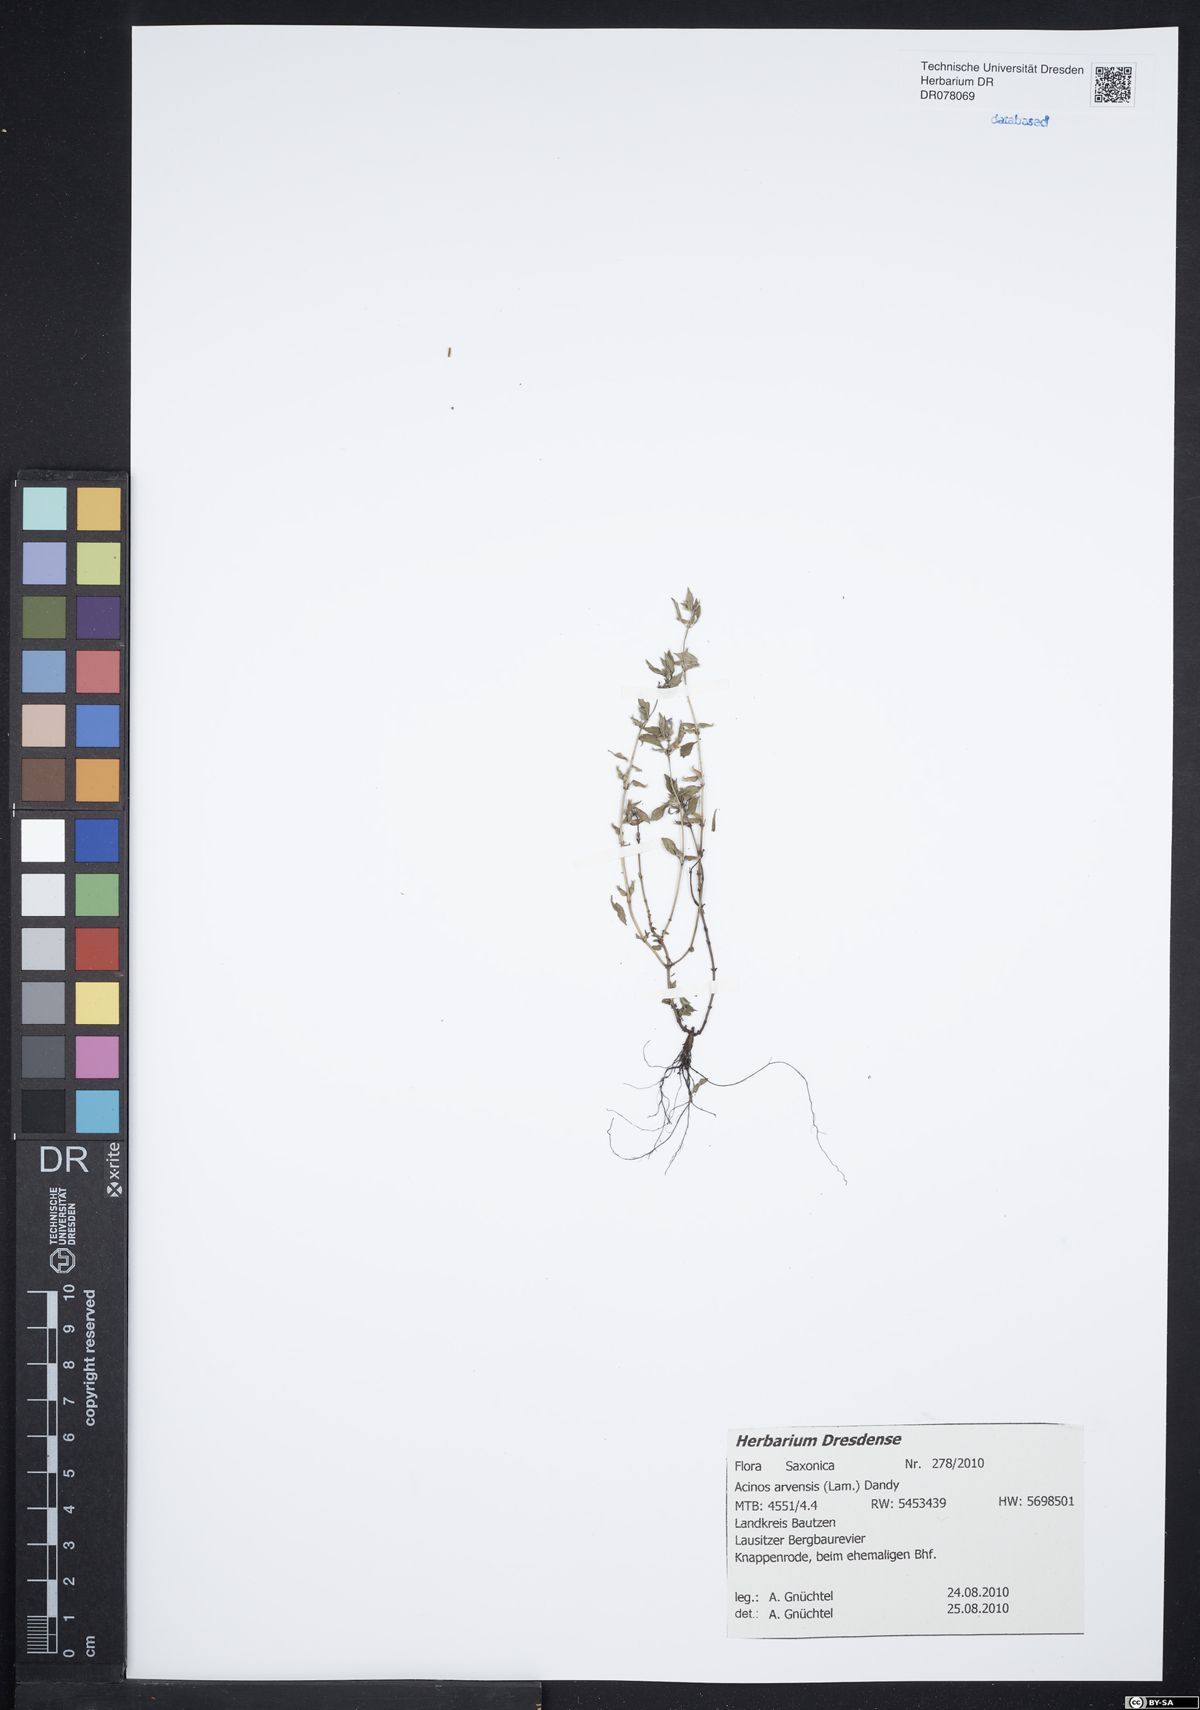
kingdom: Plantae
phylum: Tracheophyta
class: Magnoliopsida
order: Lamiales
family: Lamiaceae
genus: Clinopodium
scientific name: Clinopodium acinos
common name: Basil thyme
